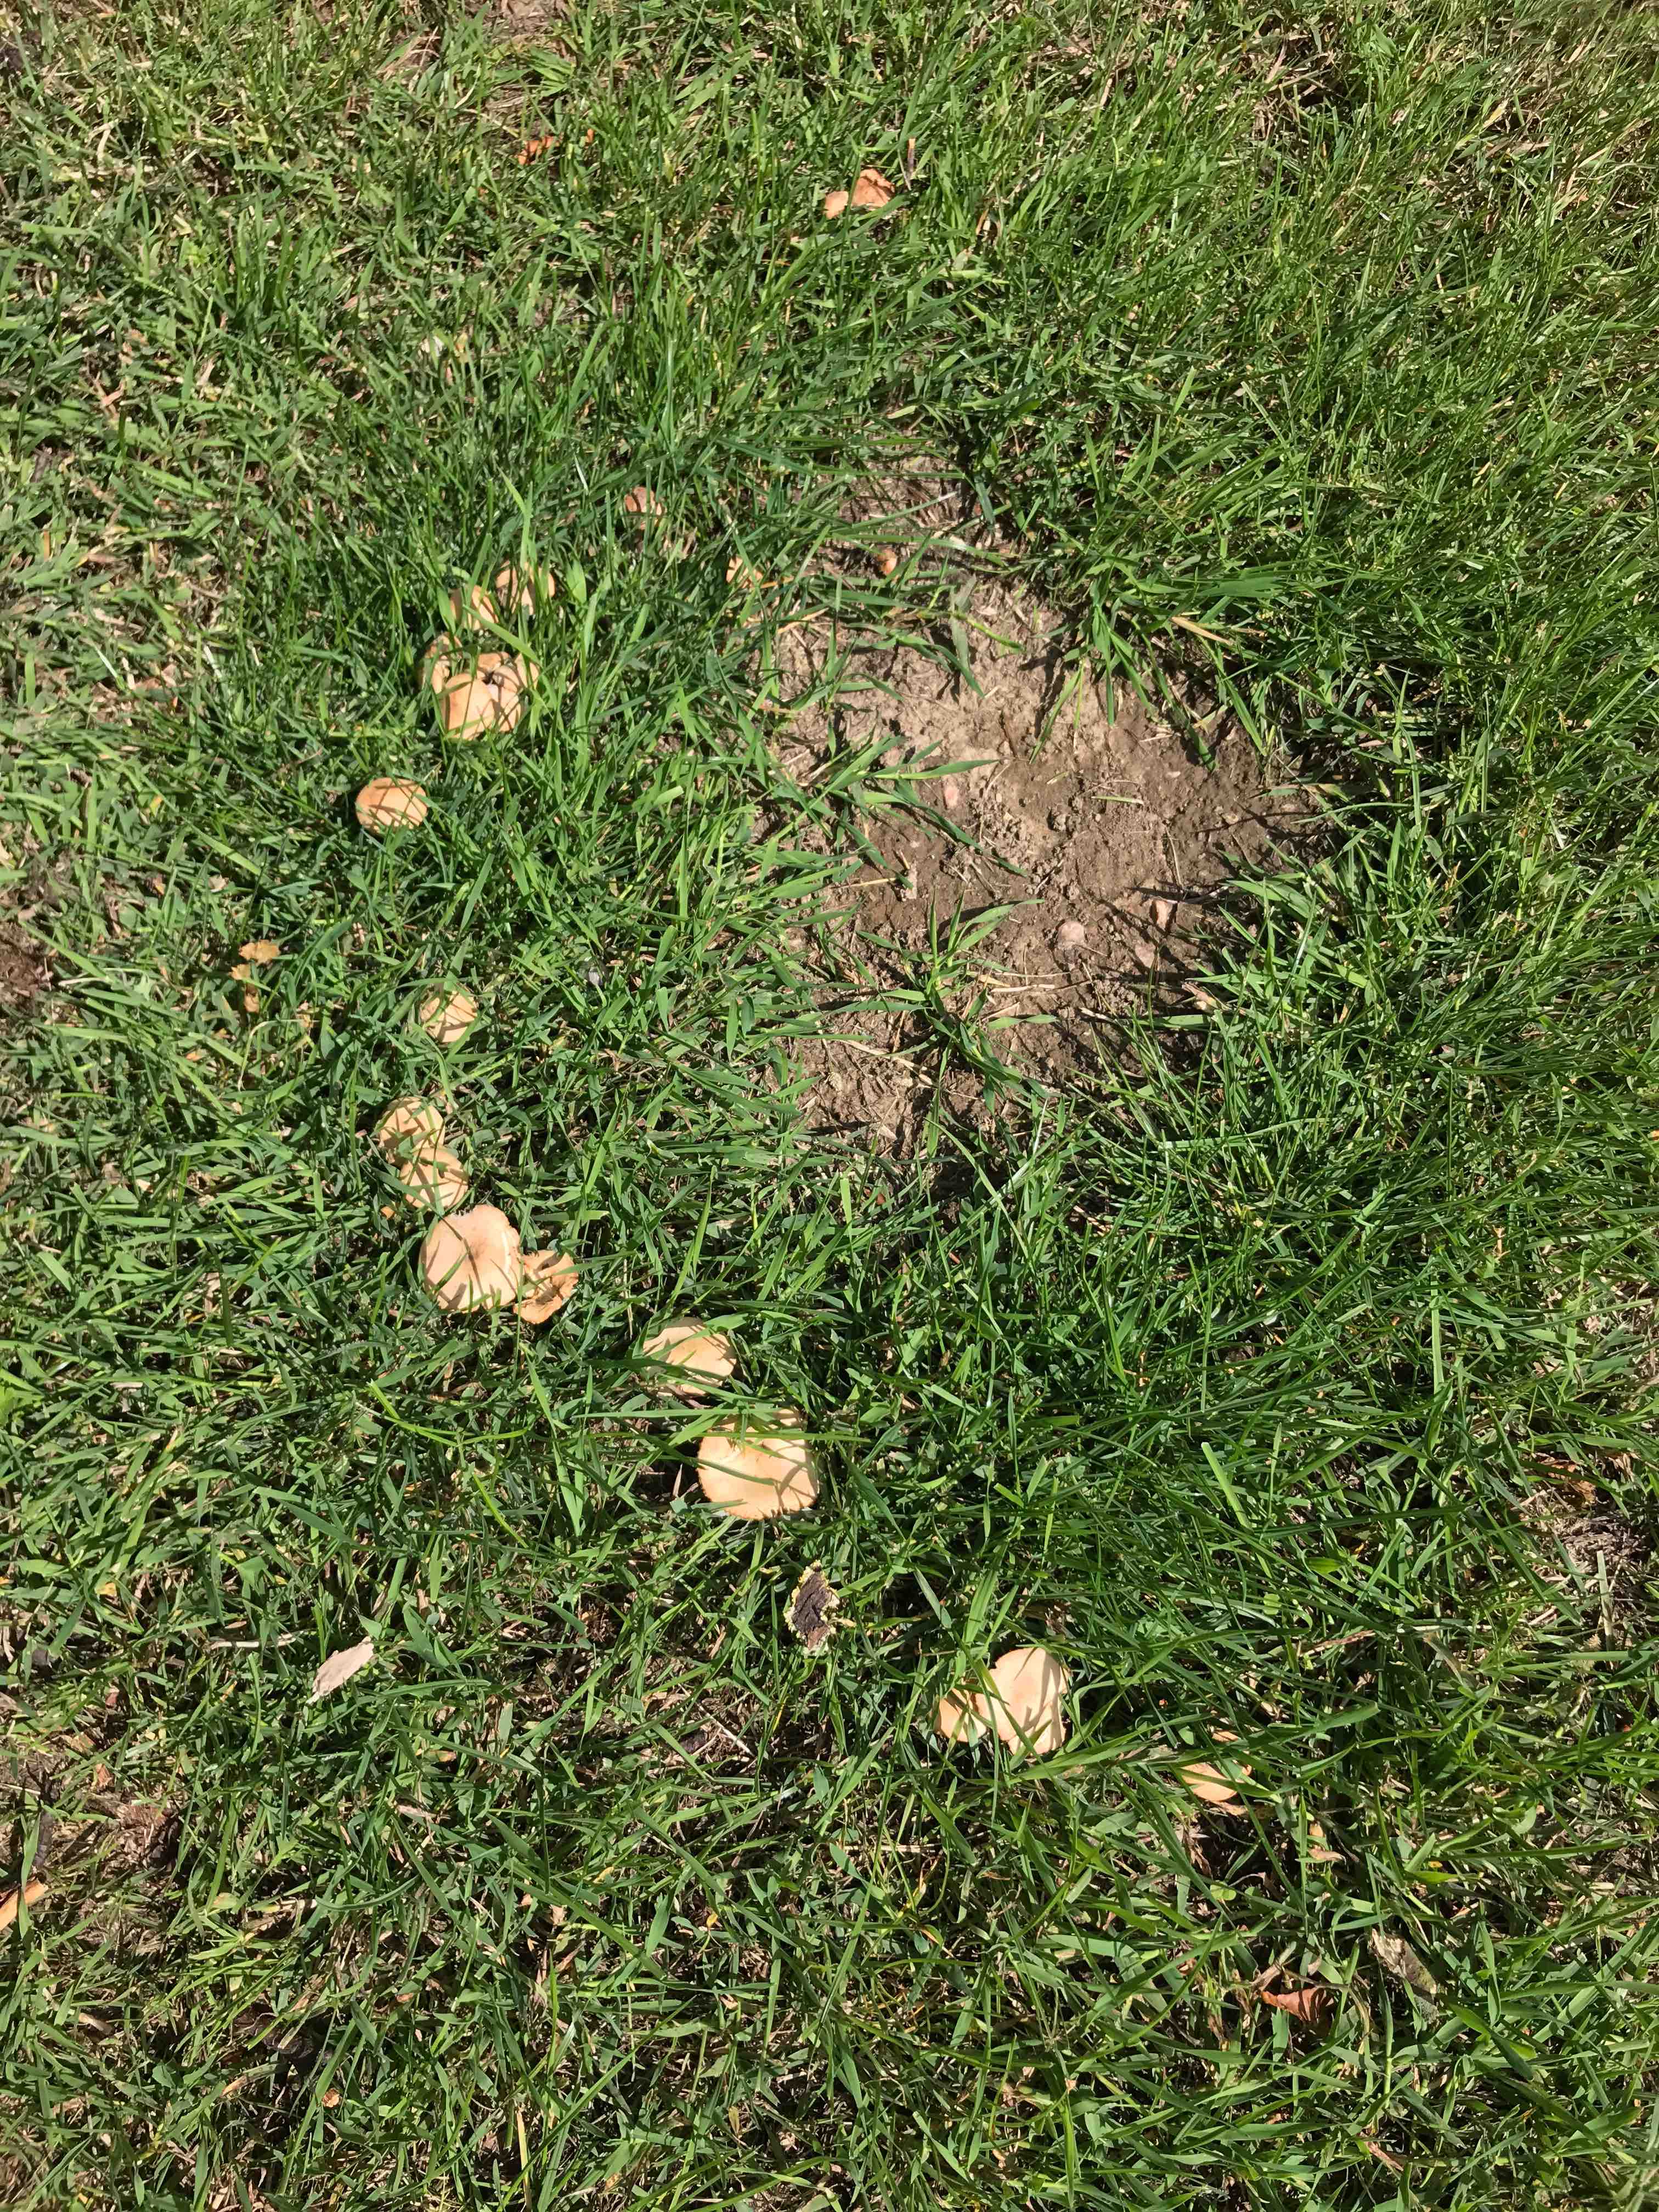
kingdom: Fungi
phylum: Basidiomycota
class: Agaricomycetes
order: Agaricales
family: Marasmiaceae
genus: Marasmius
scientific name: Marasmius oreades
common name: elledans-bruskhat
